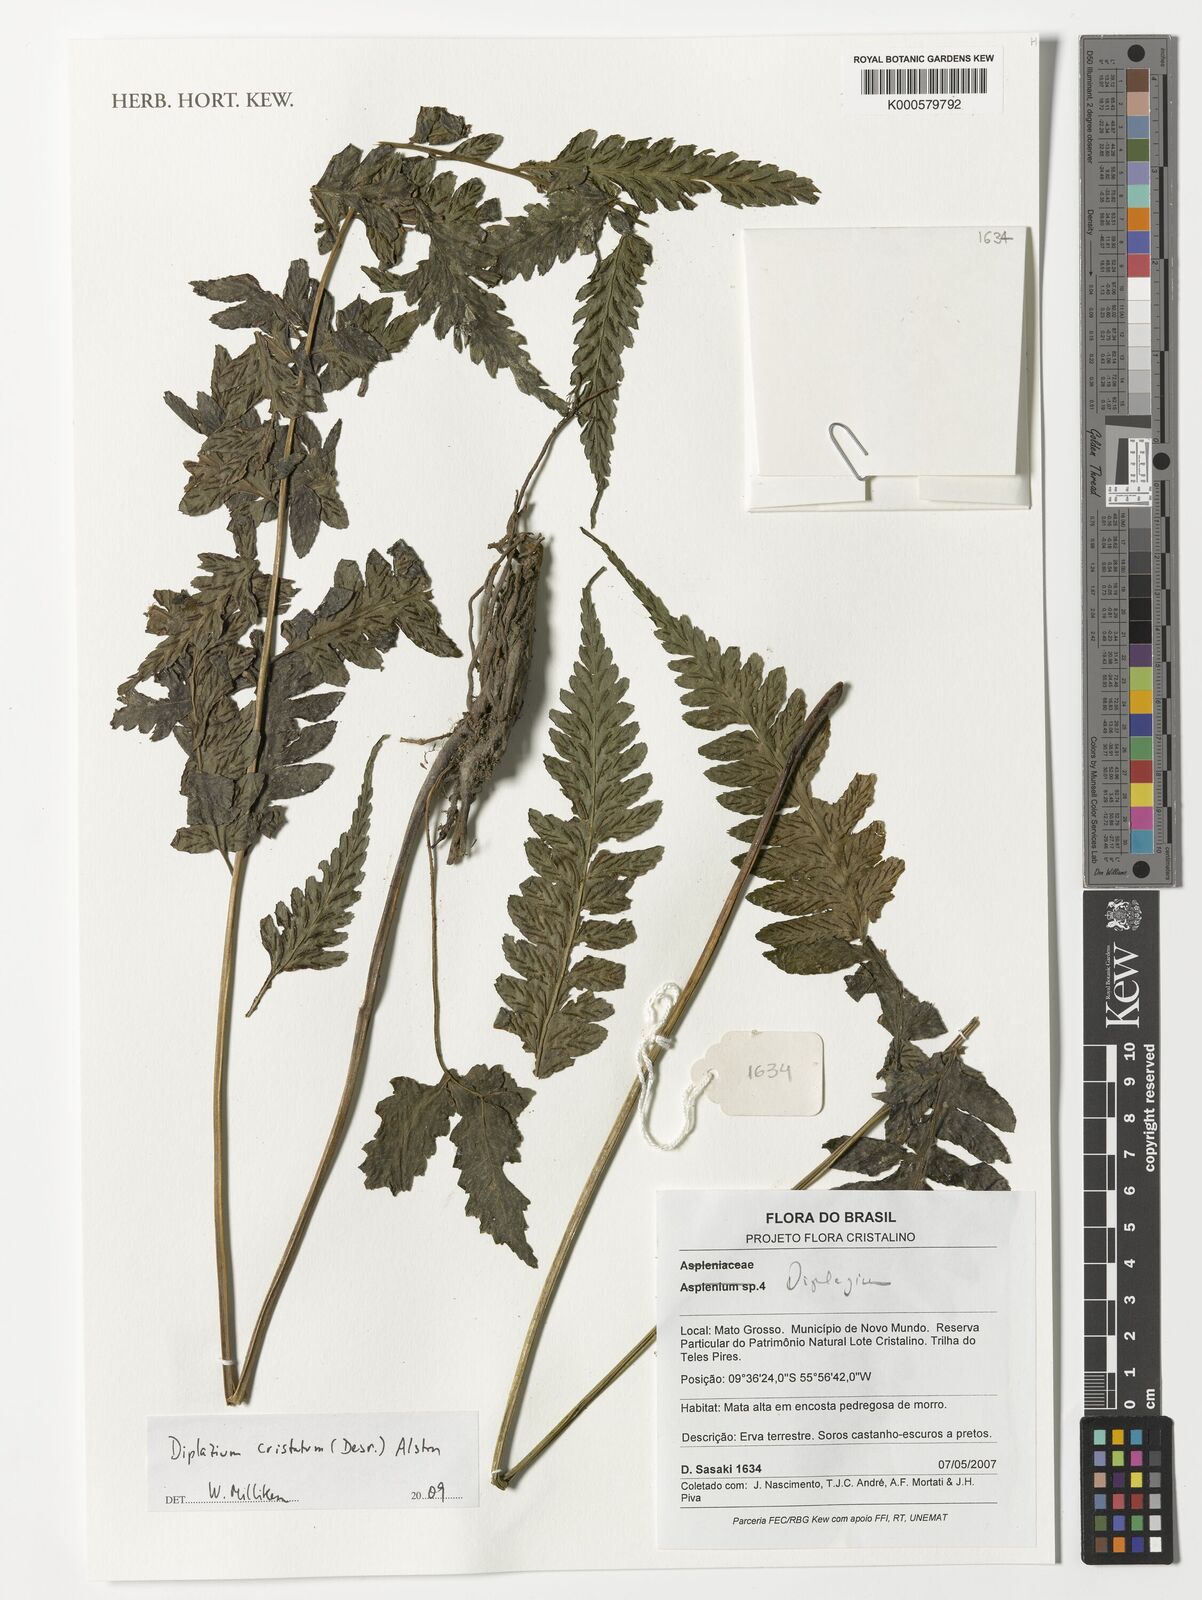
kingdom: Plantae
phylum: Tracheophyta
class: Polypodiopsida
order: Polypodiales
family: Athyriaceae
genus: Diplazium
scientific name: Diplazium cristatum
